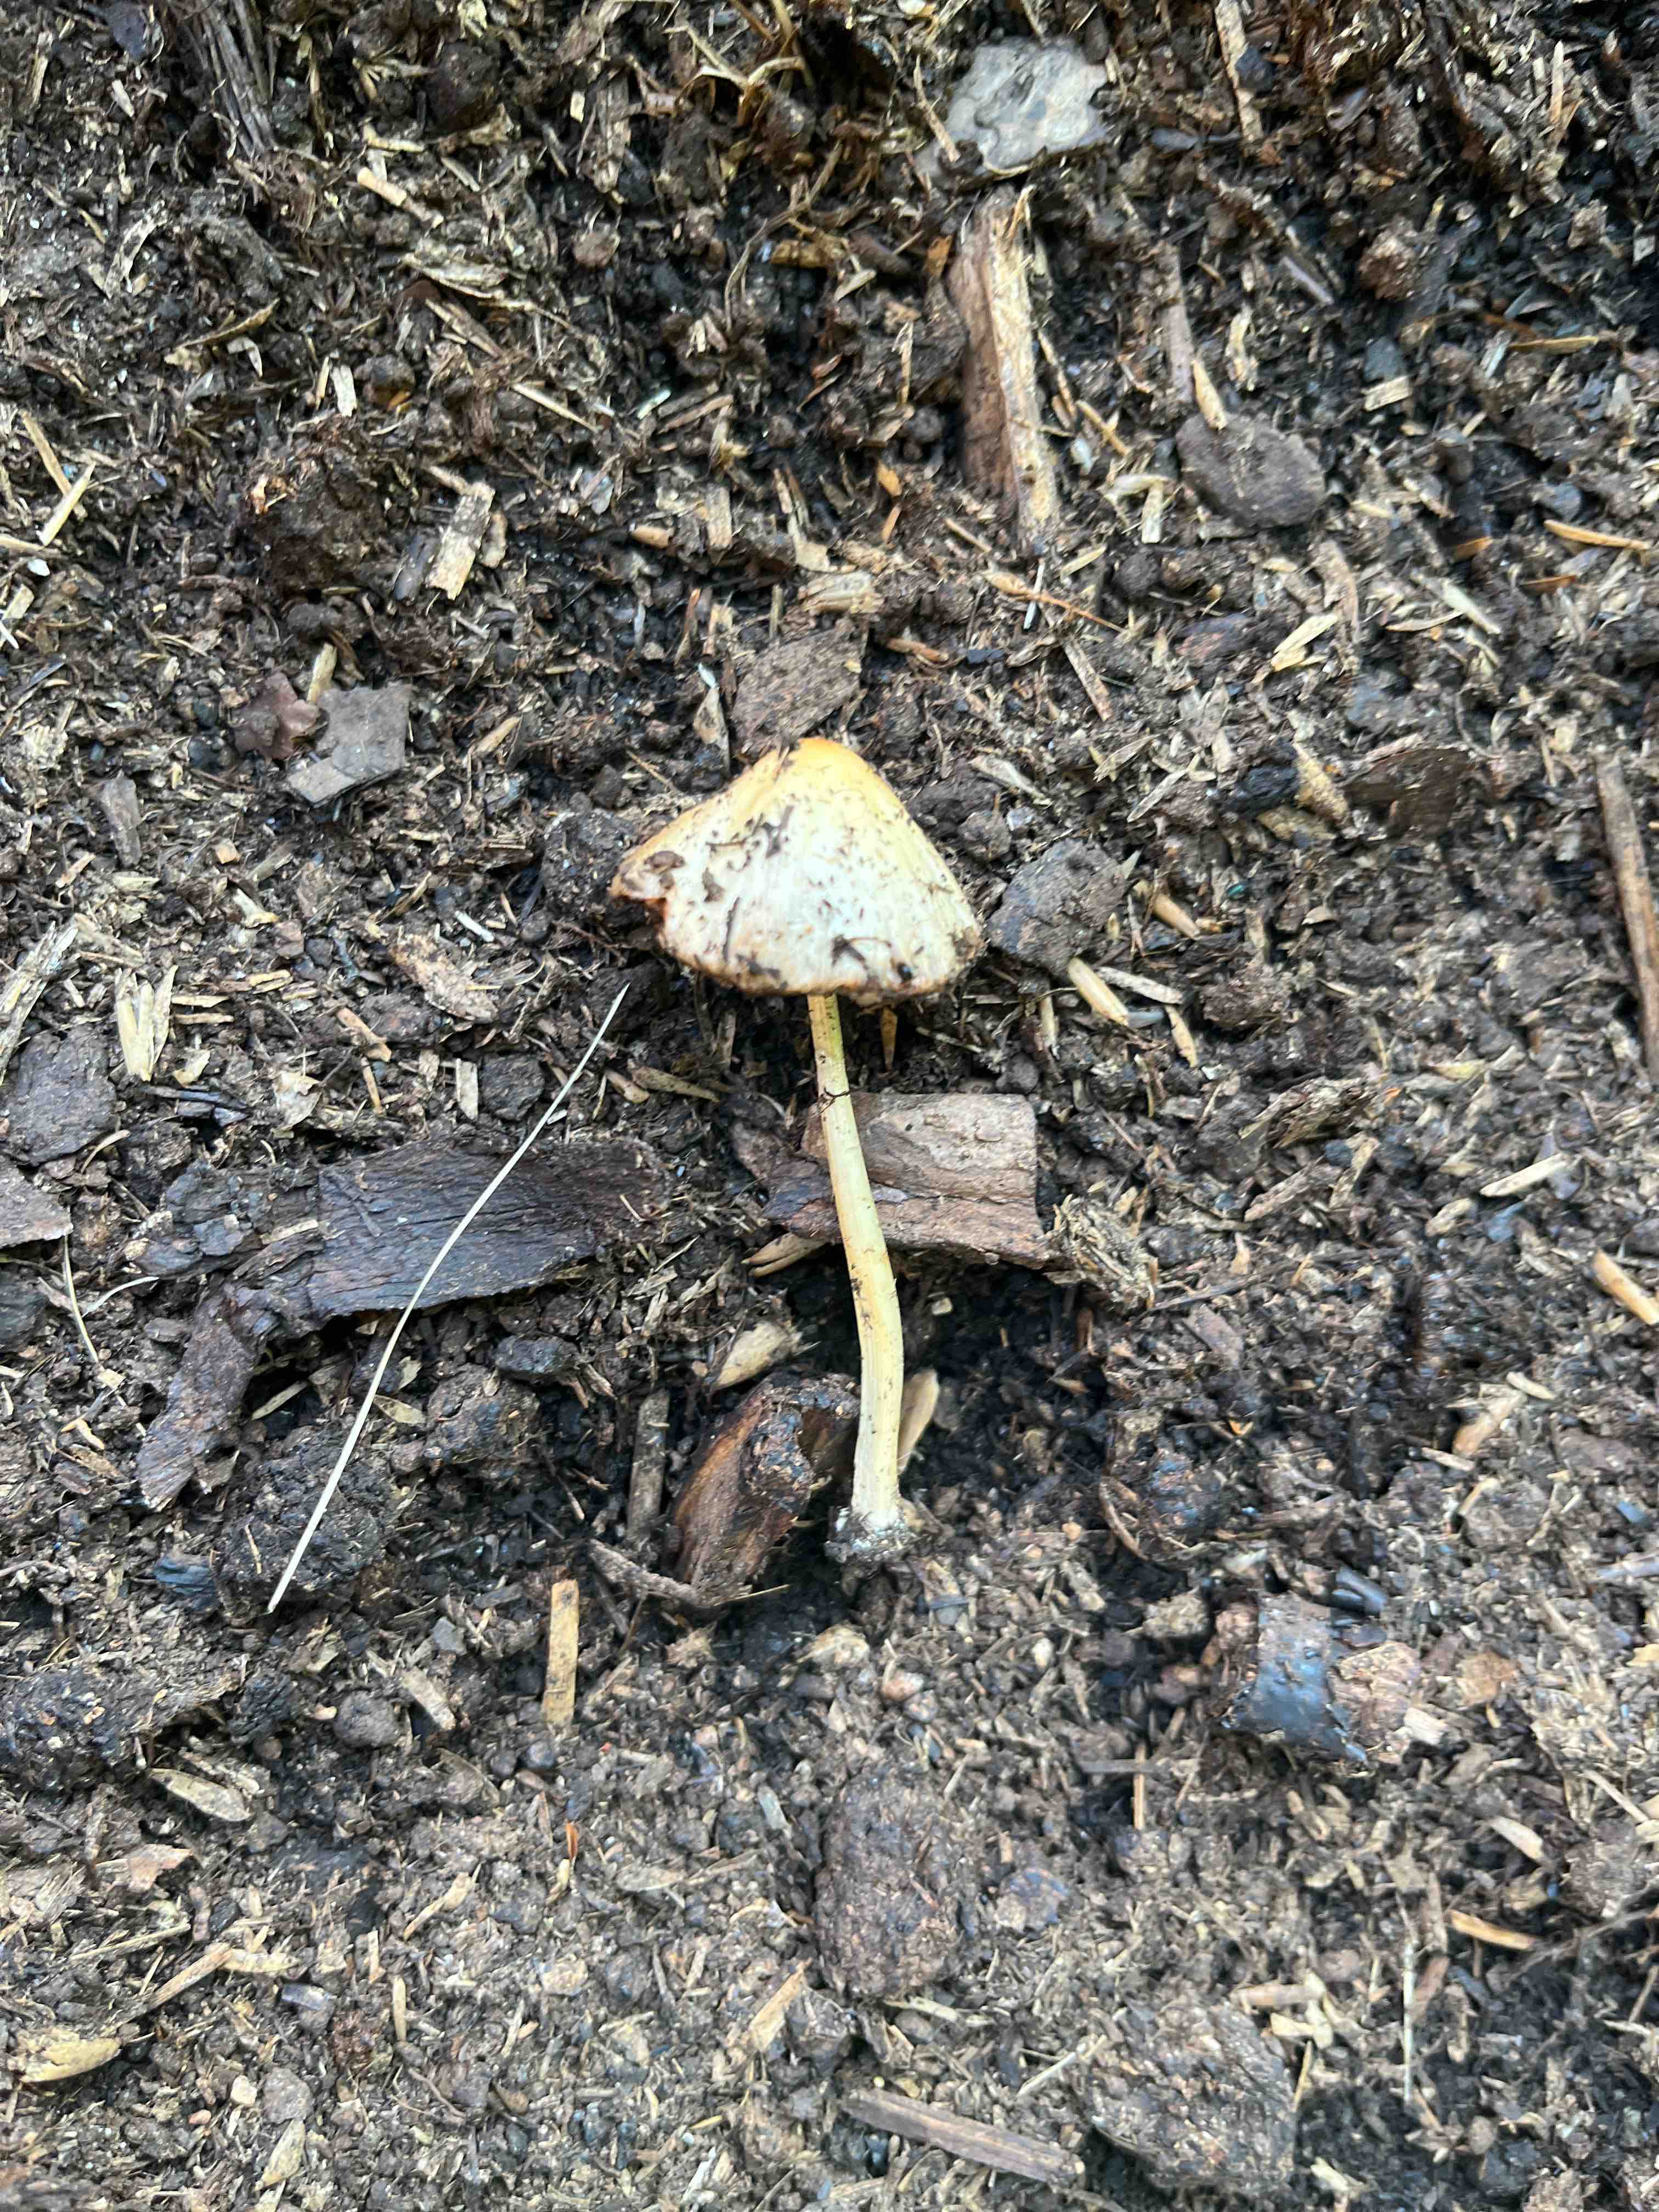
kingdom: Fungi
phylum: Basidiomycota
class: Agaricomycetes
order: Agaricales
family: Bolbitiaceae
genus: Bolbitius
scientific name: Bolbitius titubans
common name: almindelig gulhat
